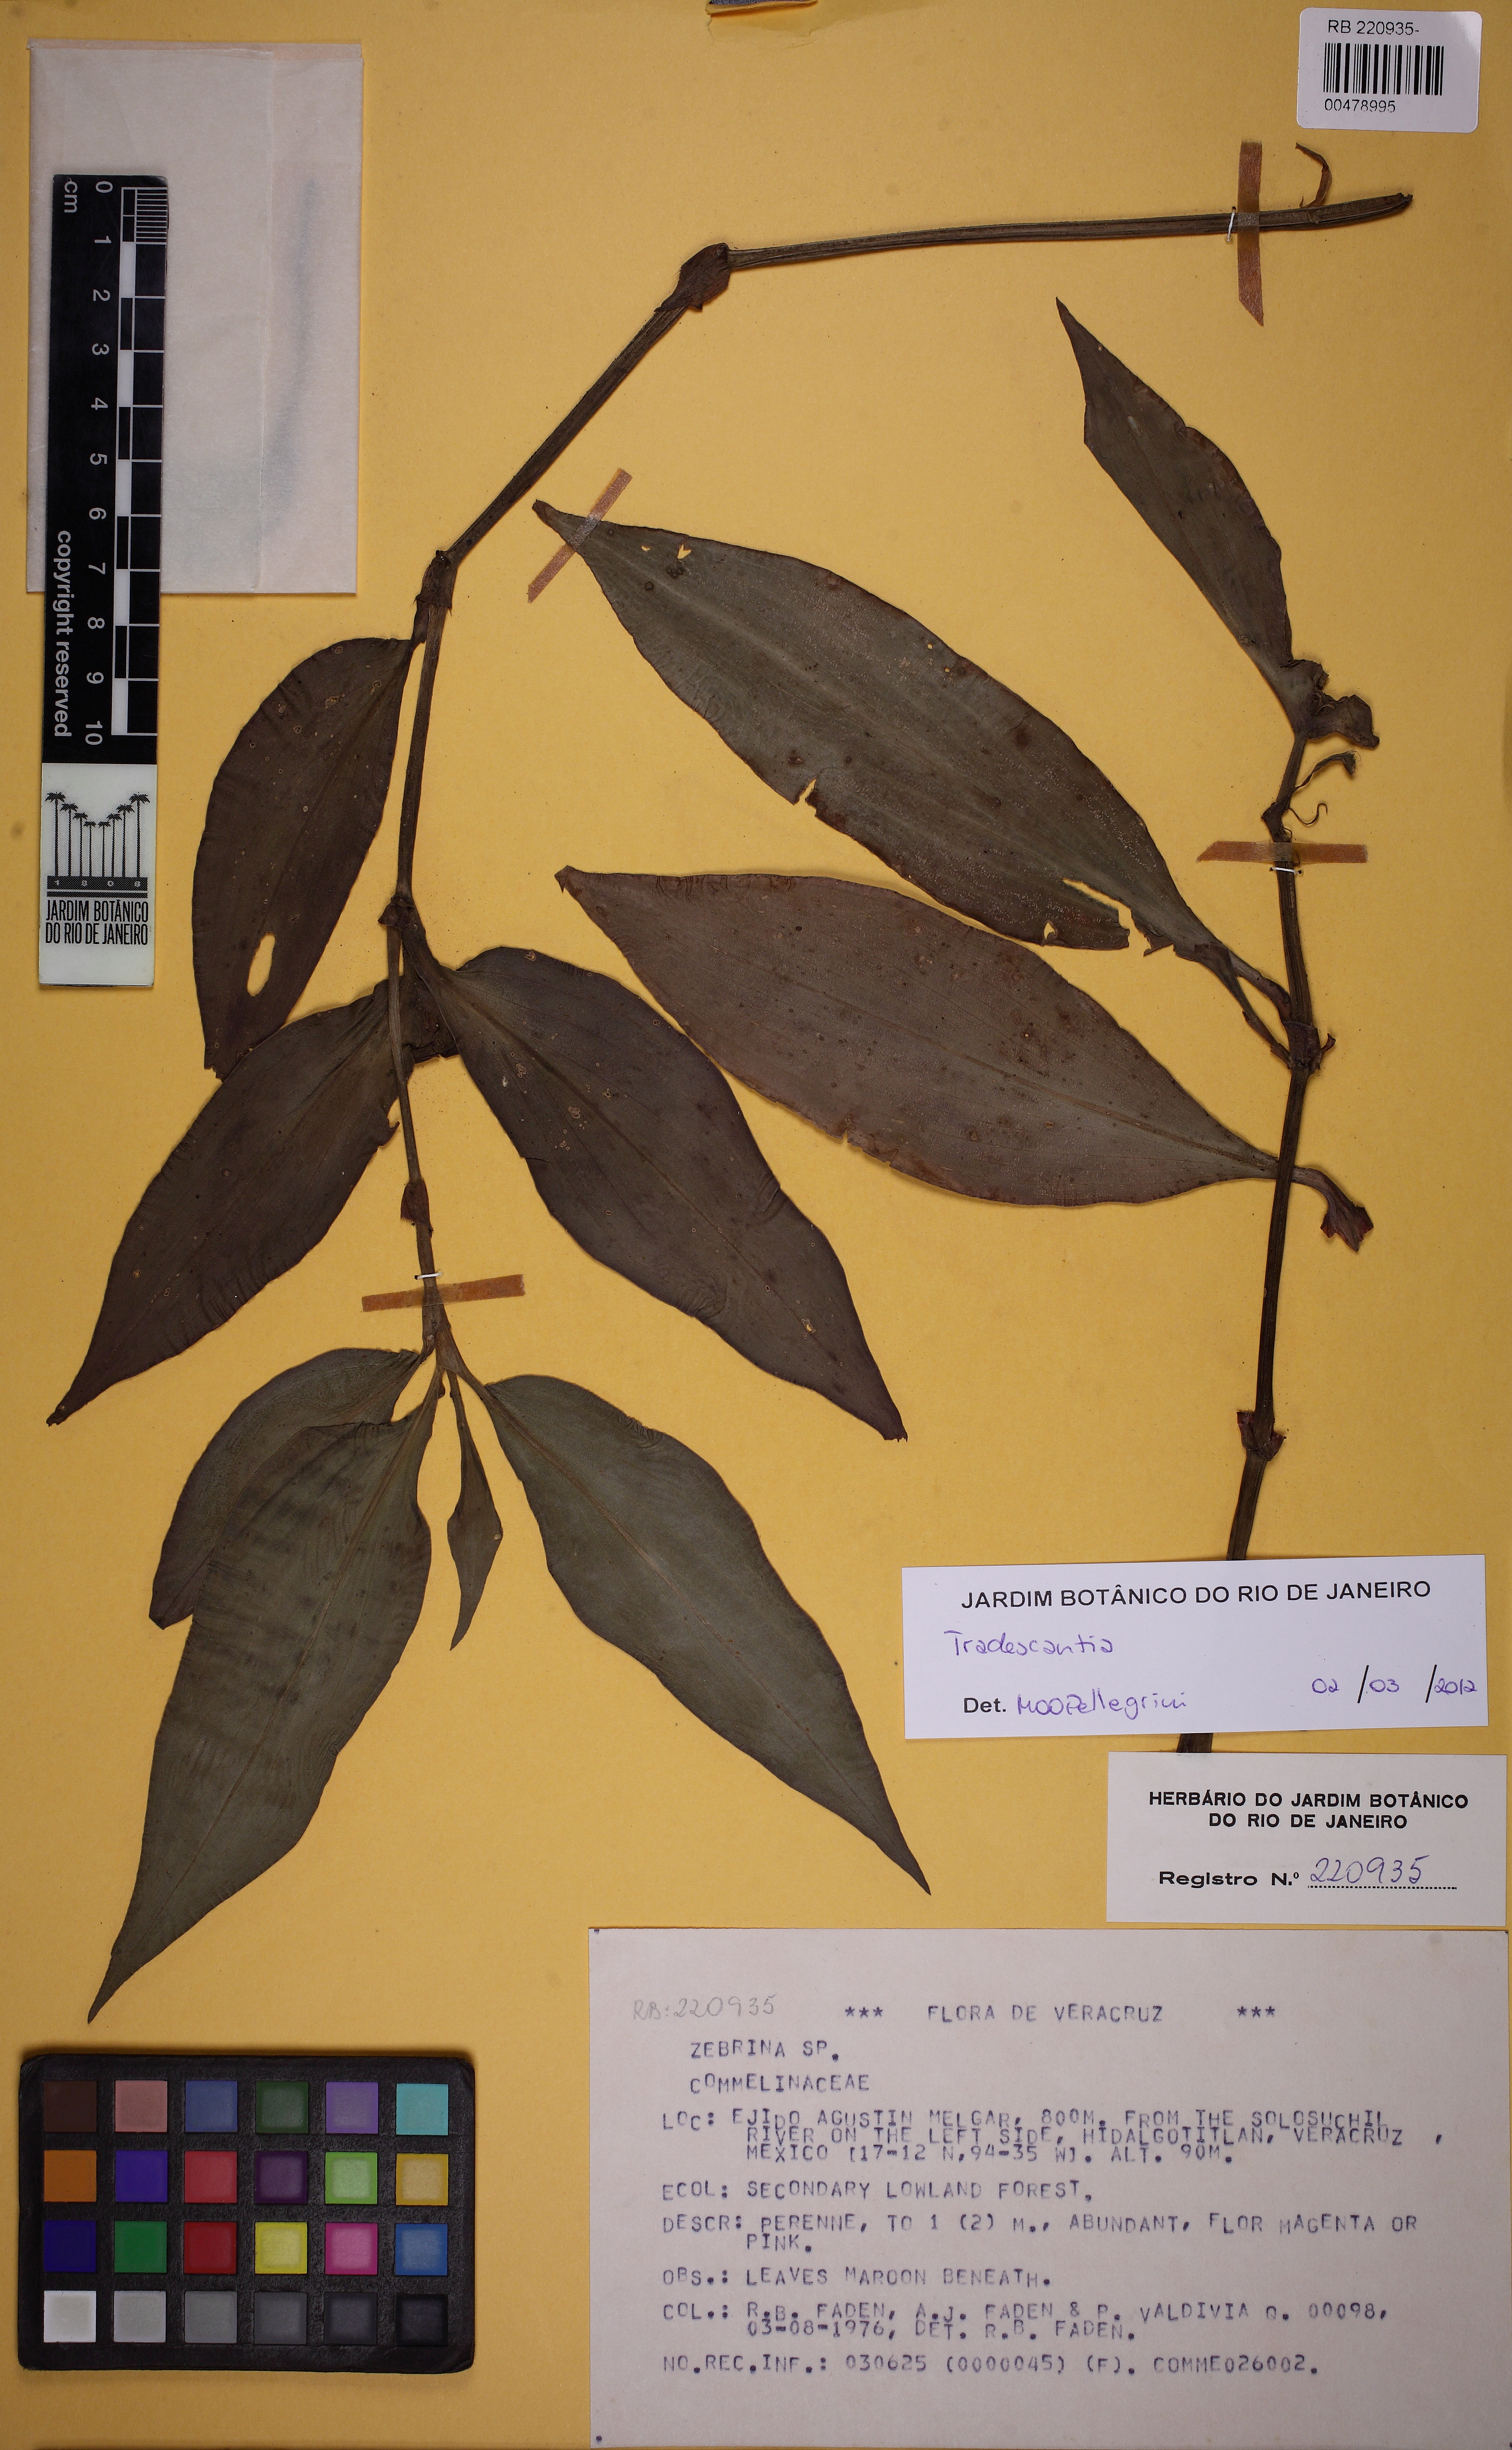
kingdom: Plantae
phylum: Tracheophyta
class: Liliopsida
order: Commelinales
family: Commelinaceae
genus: Tradescantia
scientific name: Tradescantia soconuscana
